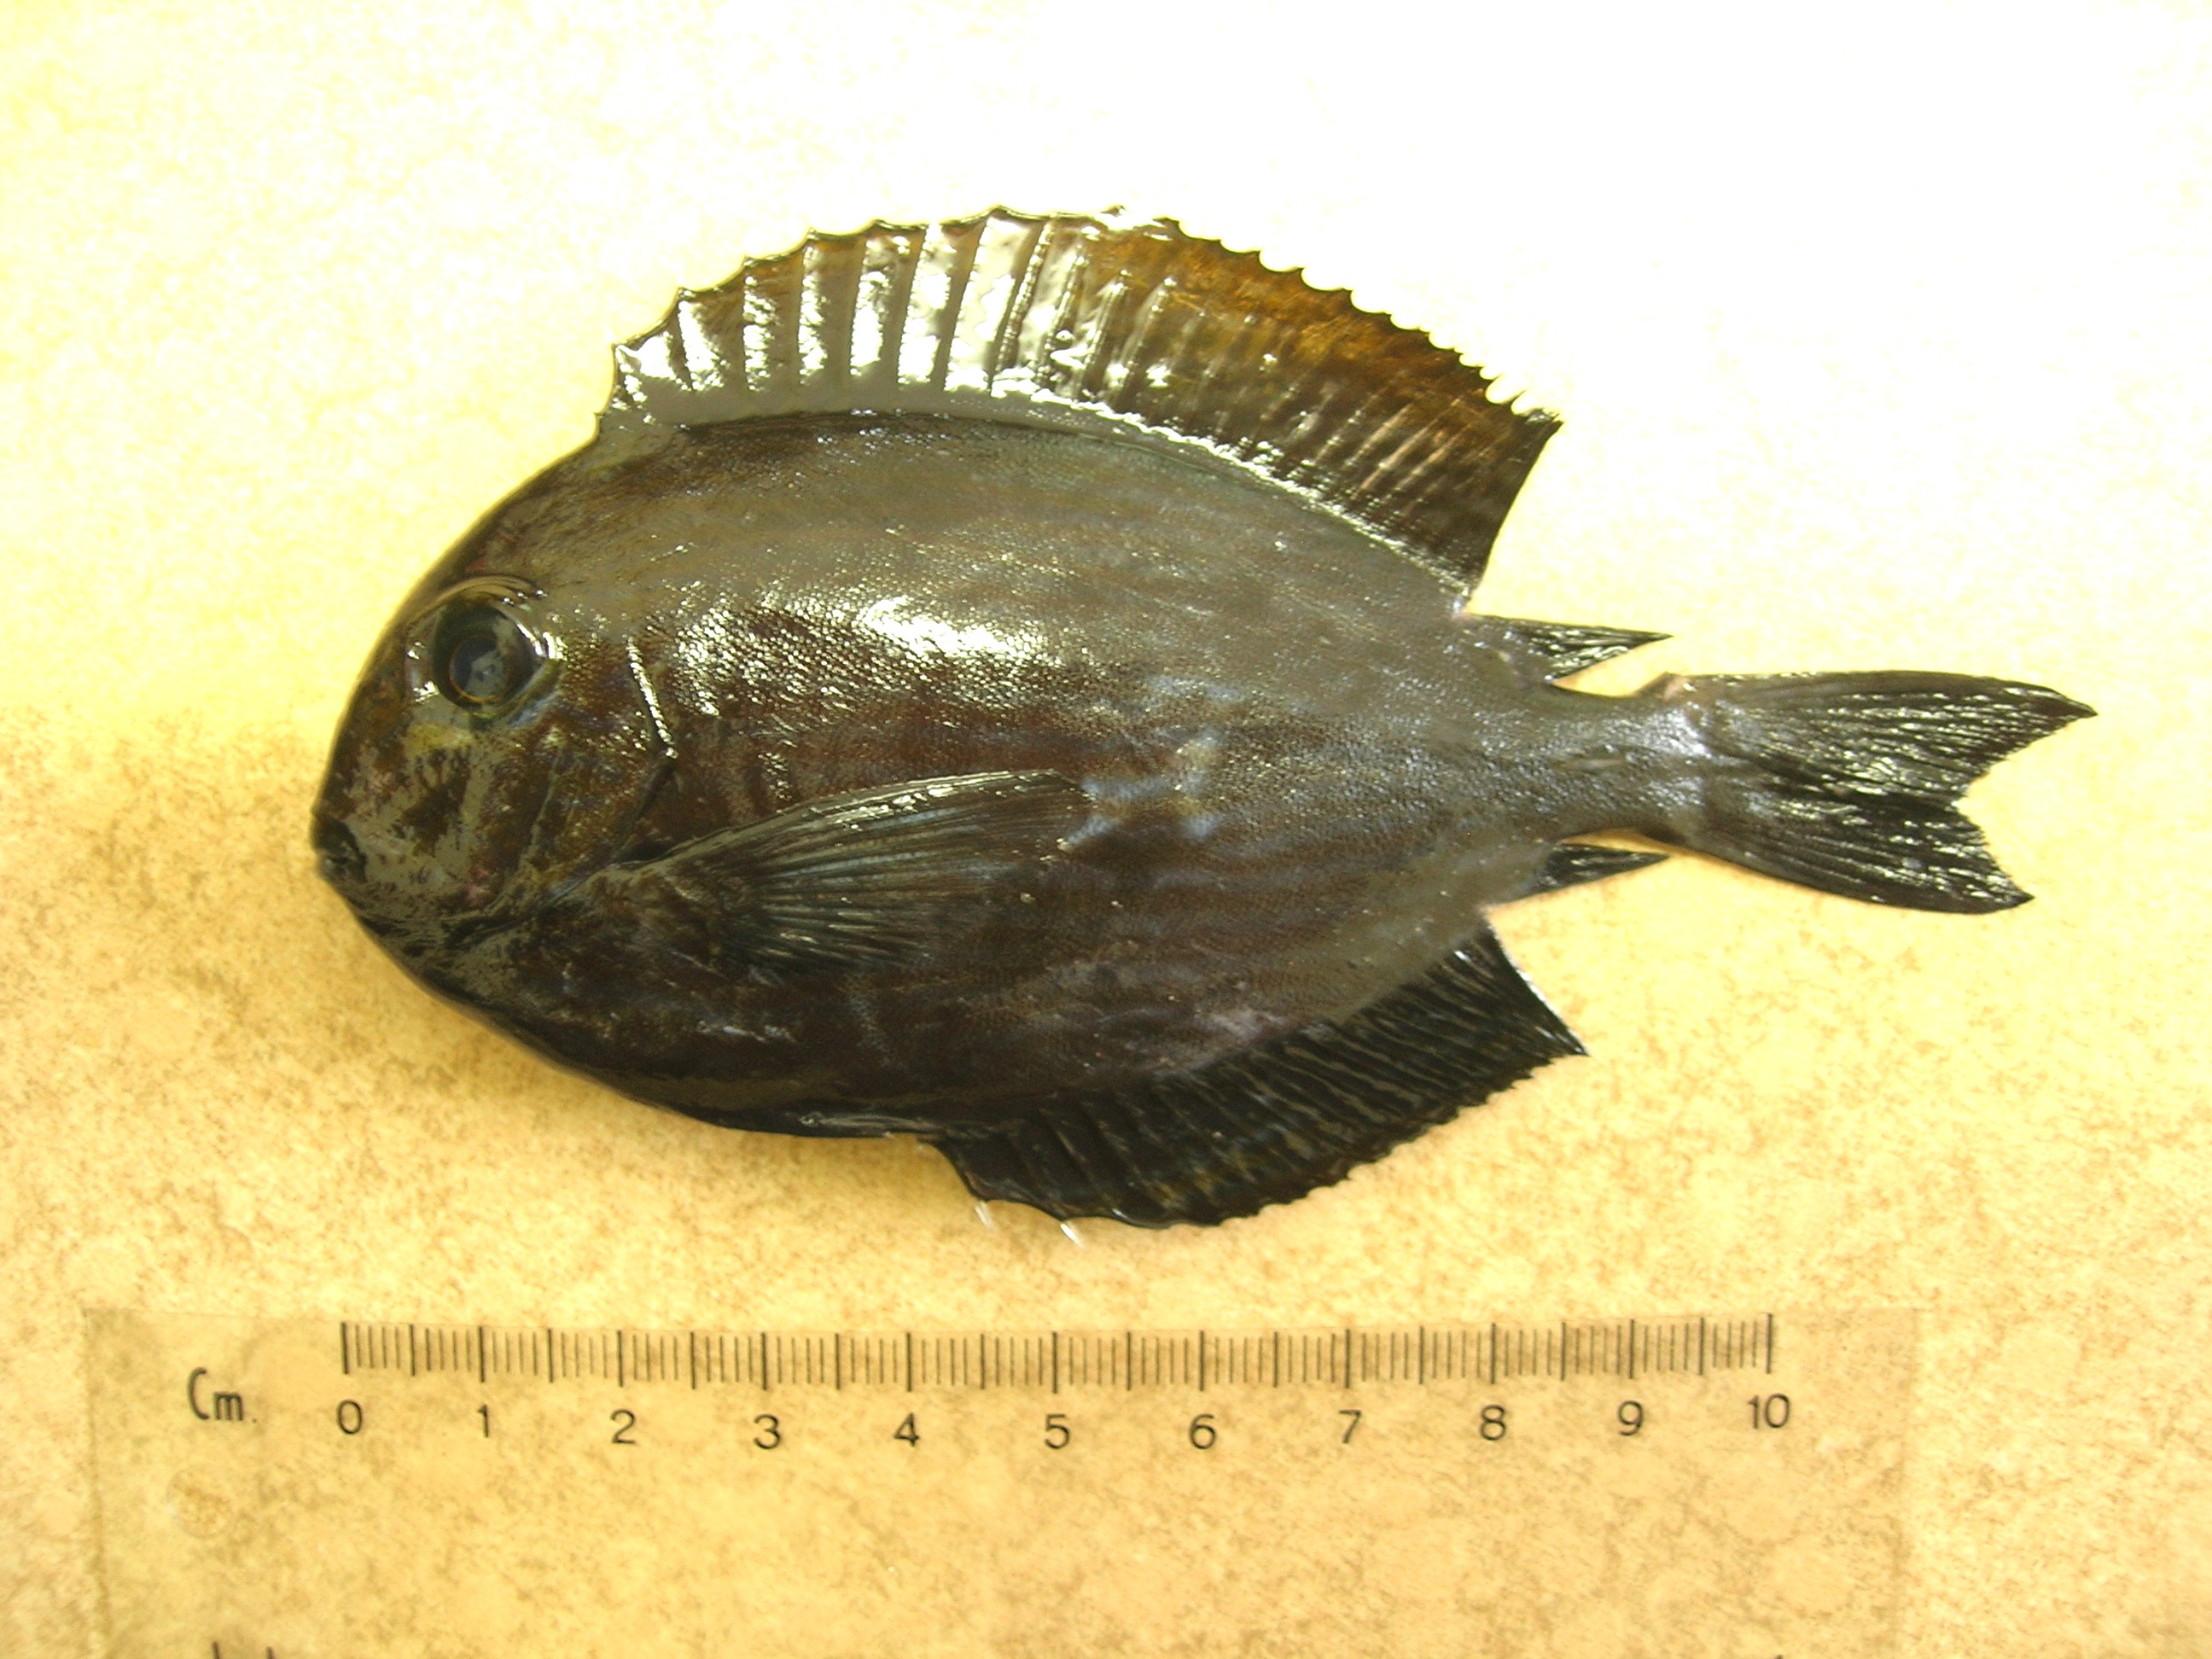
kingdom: Animalia
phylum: Chordata
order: Perciformes
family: Acanthuridae
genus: Acanthurus
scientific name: Acanthurus mata
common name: Bleeker's surgeonfish
